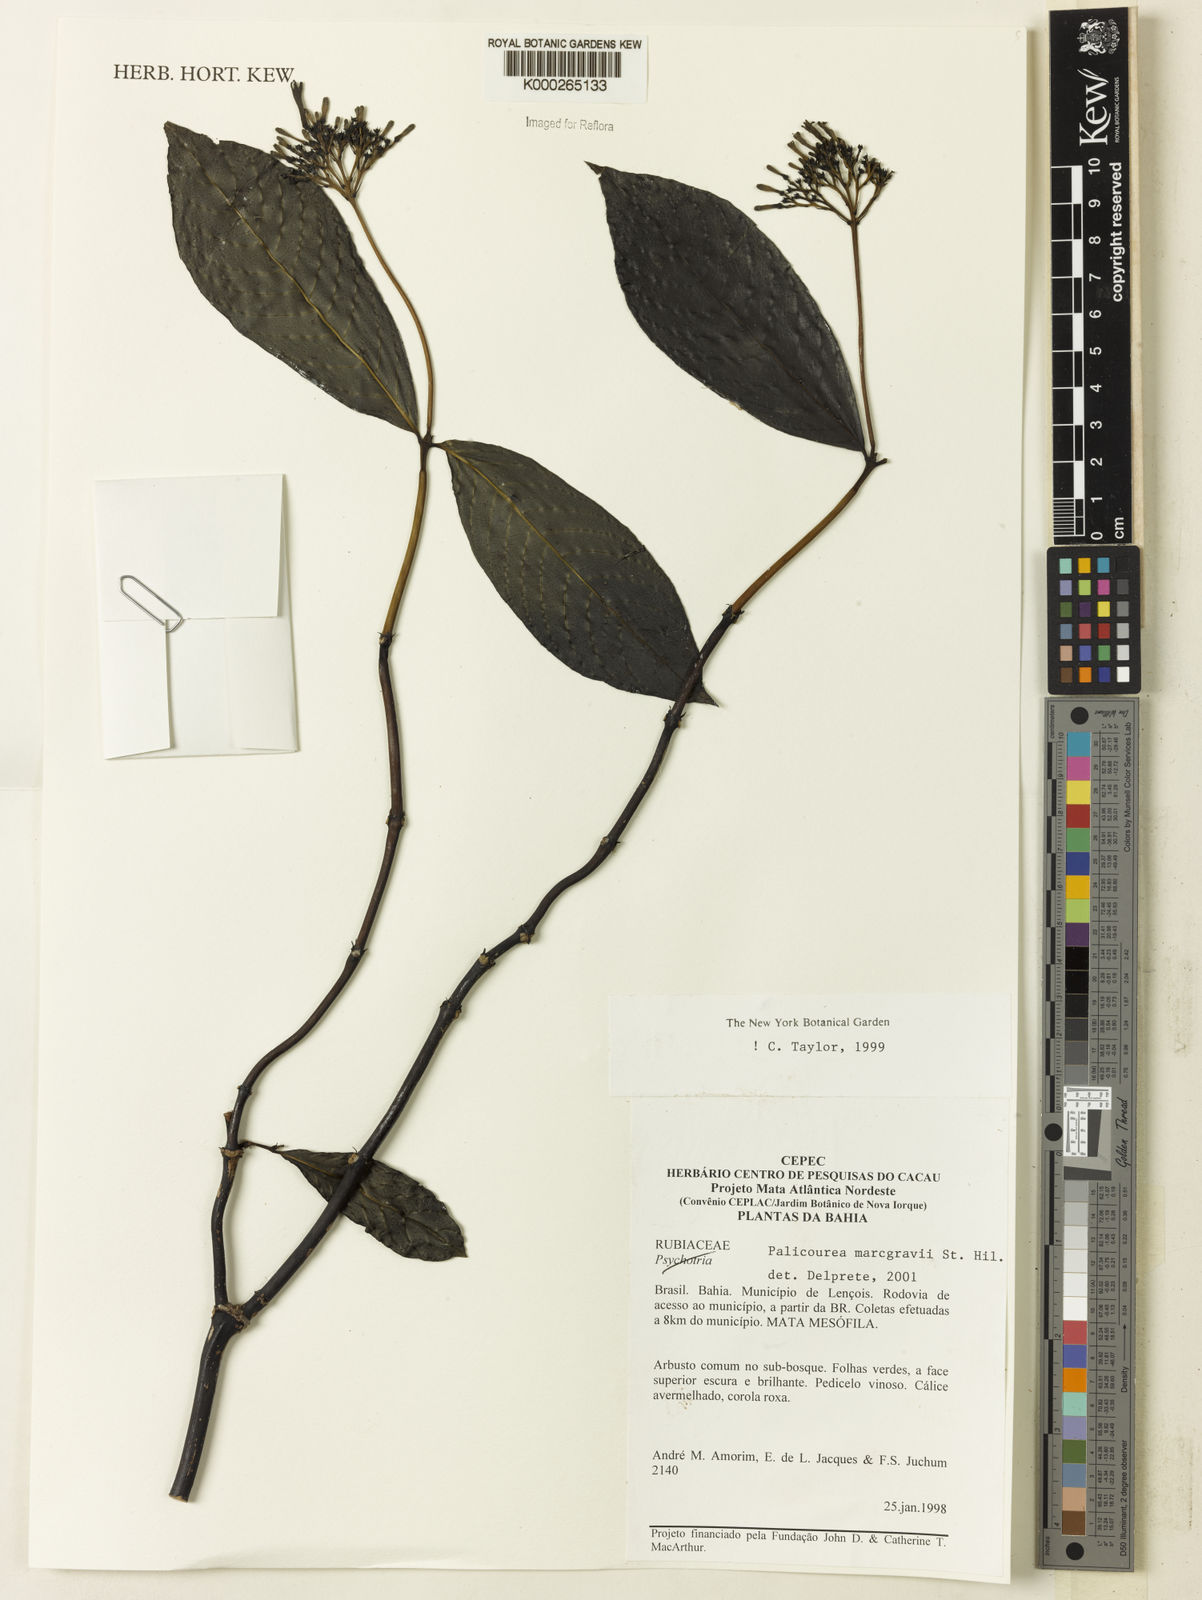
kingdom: Plantae
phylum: Tracheophyta
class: Magnoliopsida
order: Gentianales
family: Rubiaceae
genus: Palicourea
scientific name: Palicourea marcgravii
